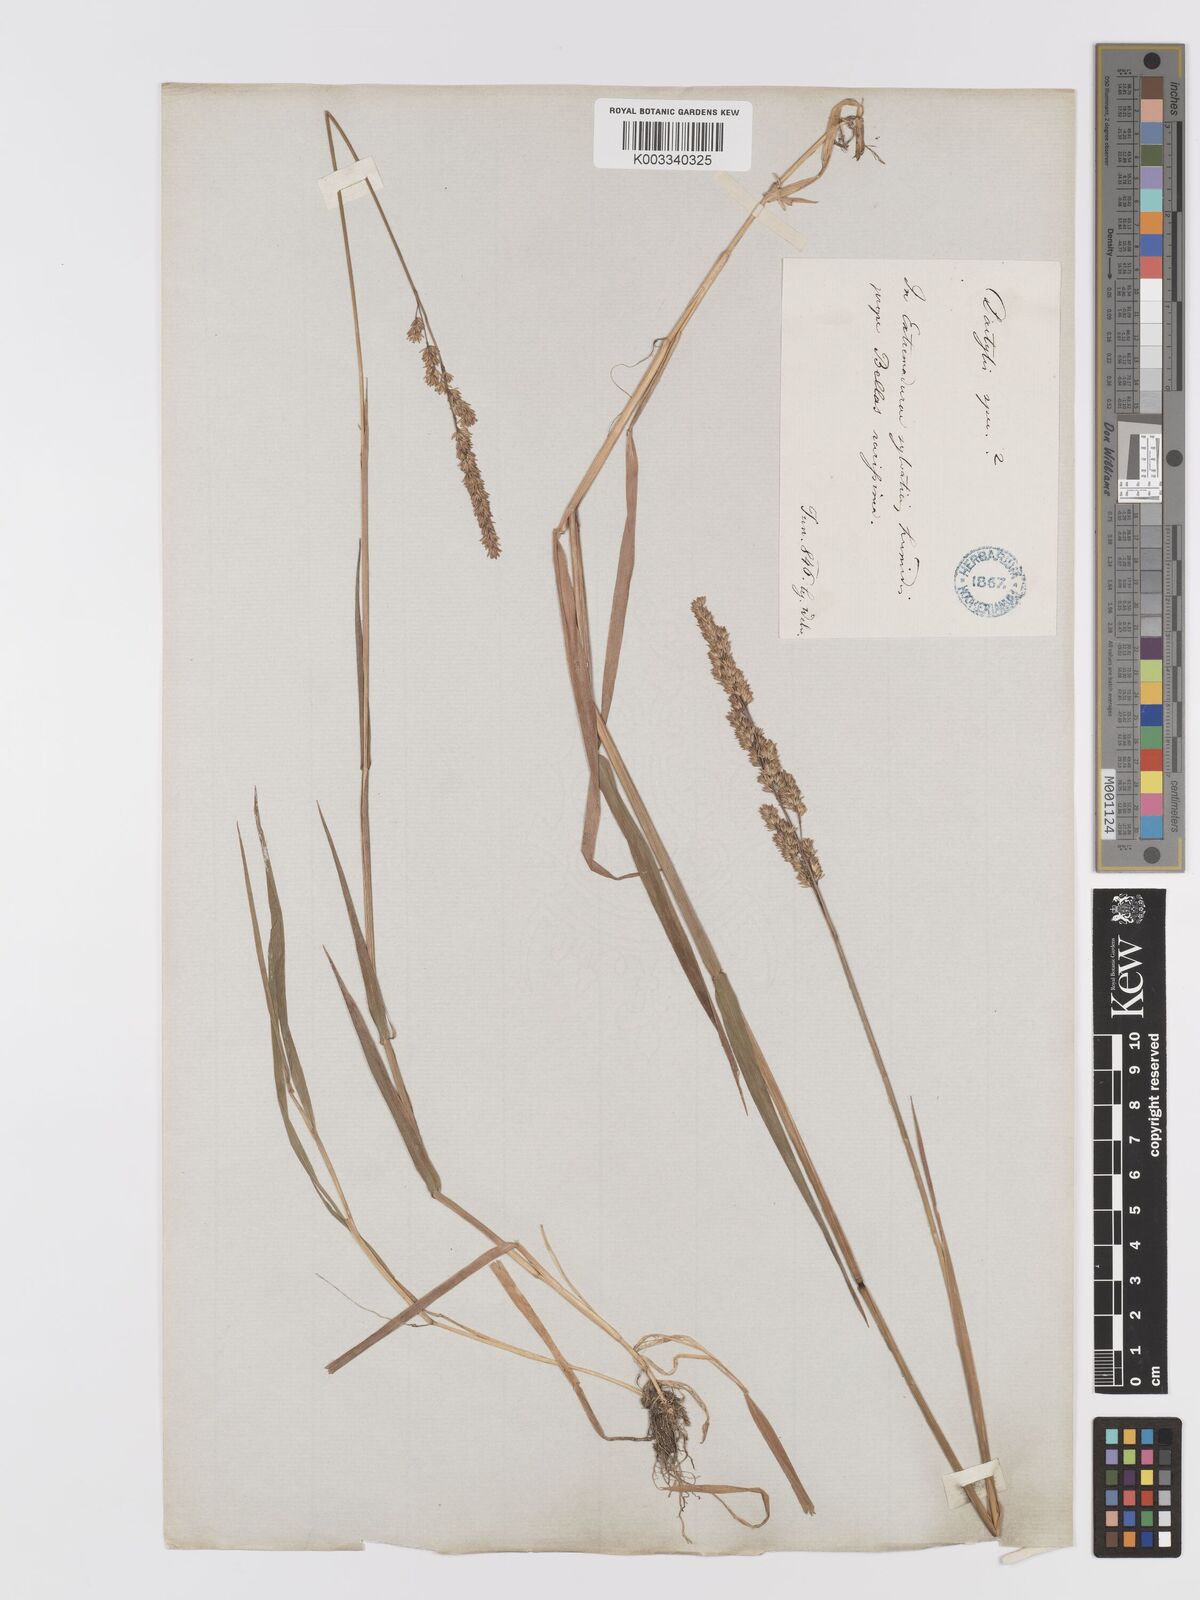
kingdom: Plantae
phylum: Tracheophyta
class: Liliopsida
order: Poales
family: Poaceae
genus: Agrostis
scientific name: Agrostis juressi
